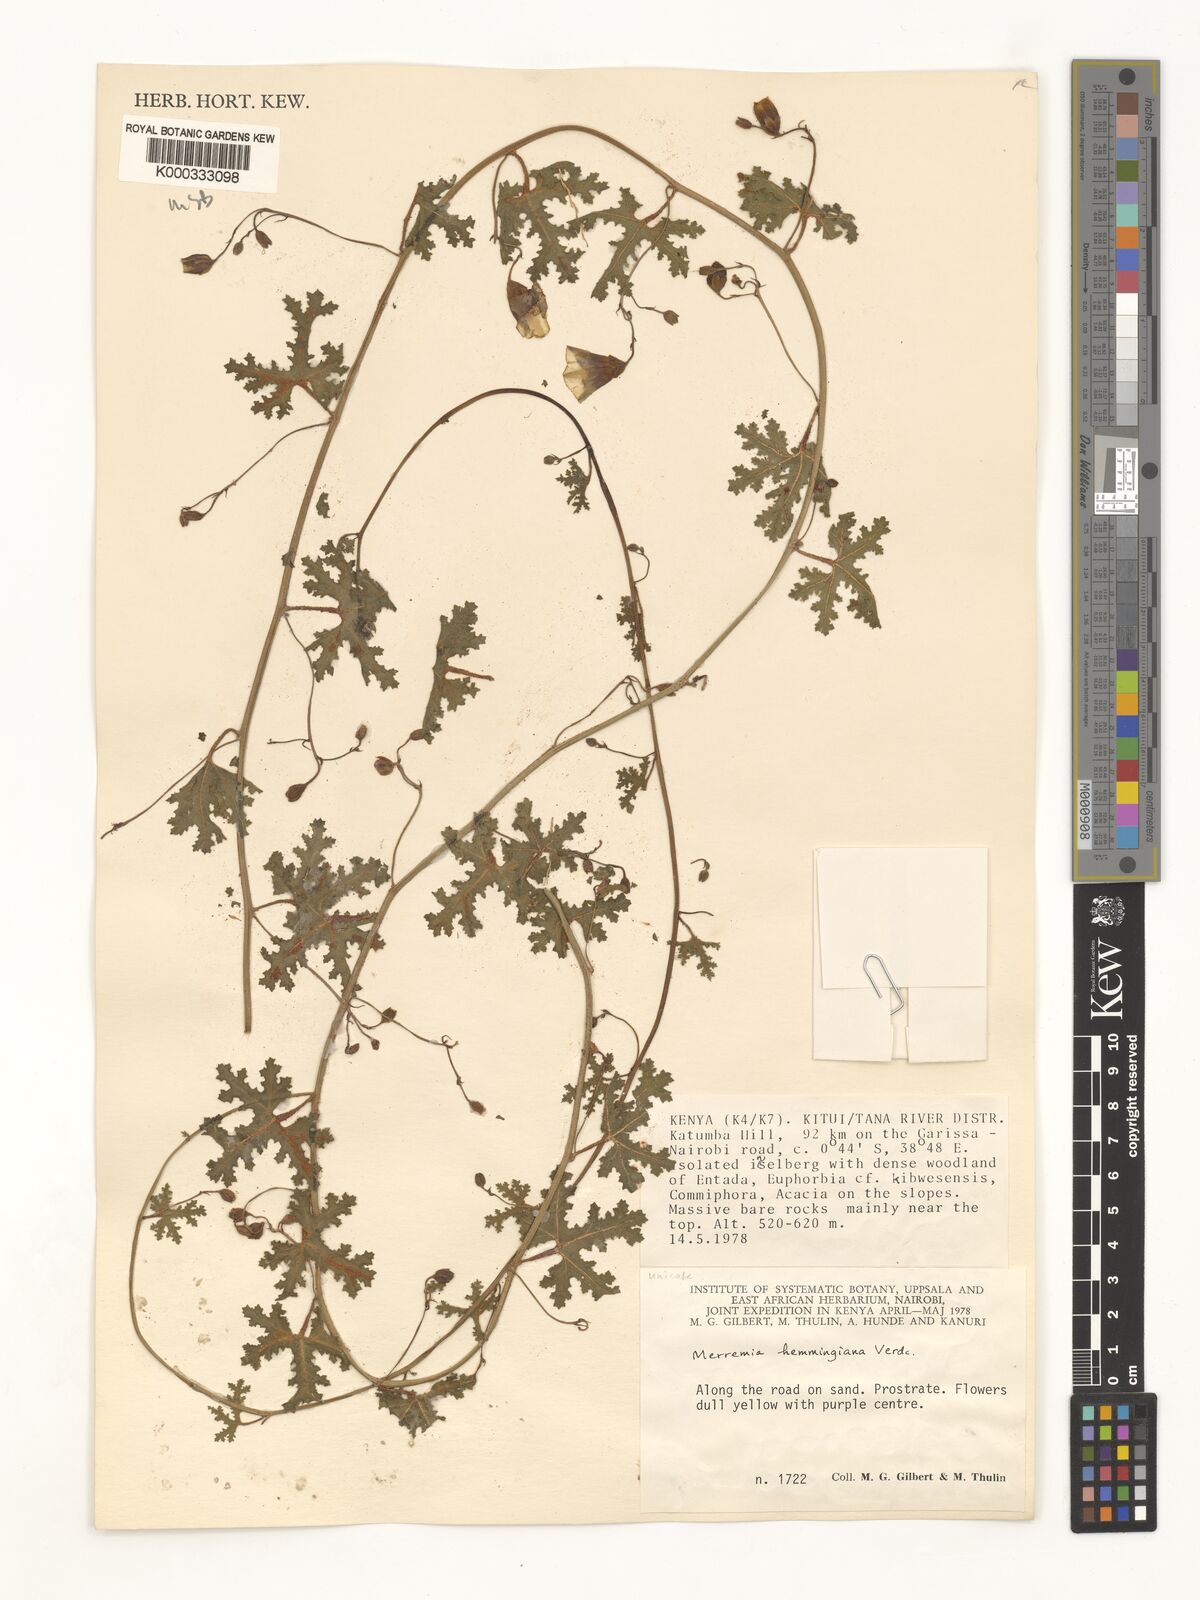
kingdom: Plantae
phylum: Tracheophyta
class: Magnoliopsida
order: Solanales
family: Convolvulaceae
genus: Merremia
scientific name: Merremia hemmingiana
